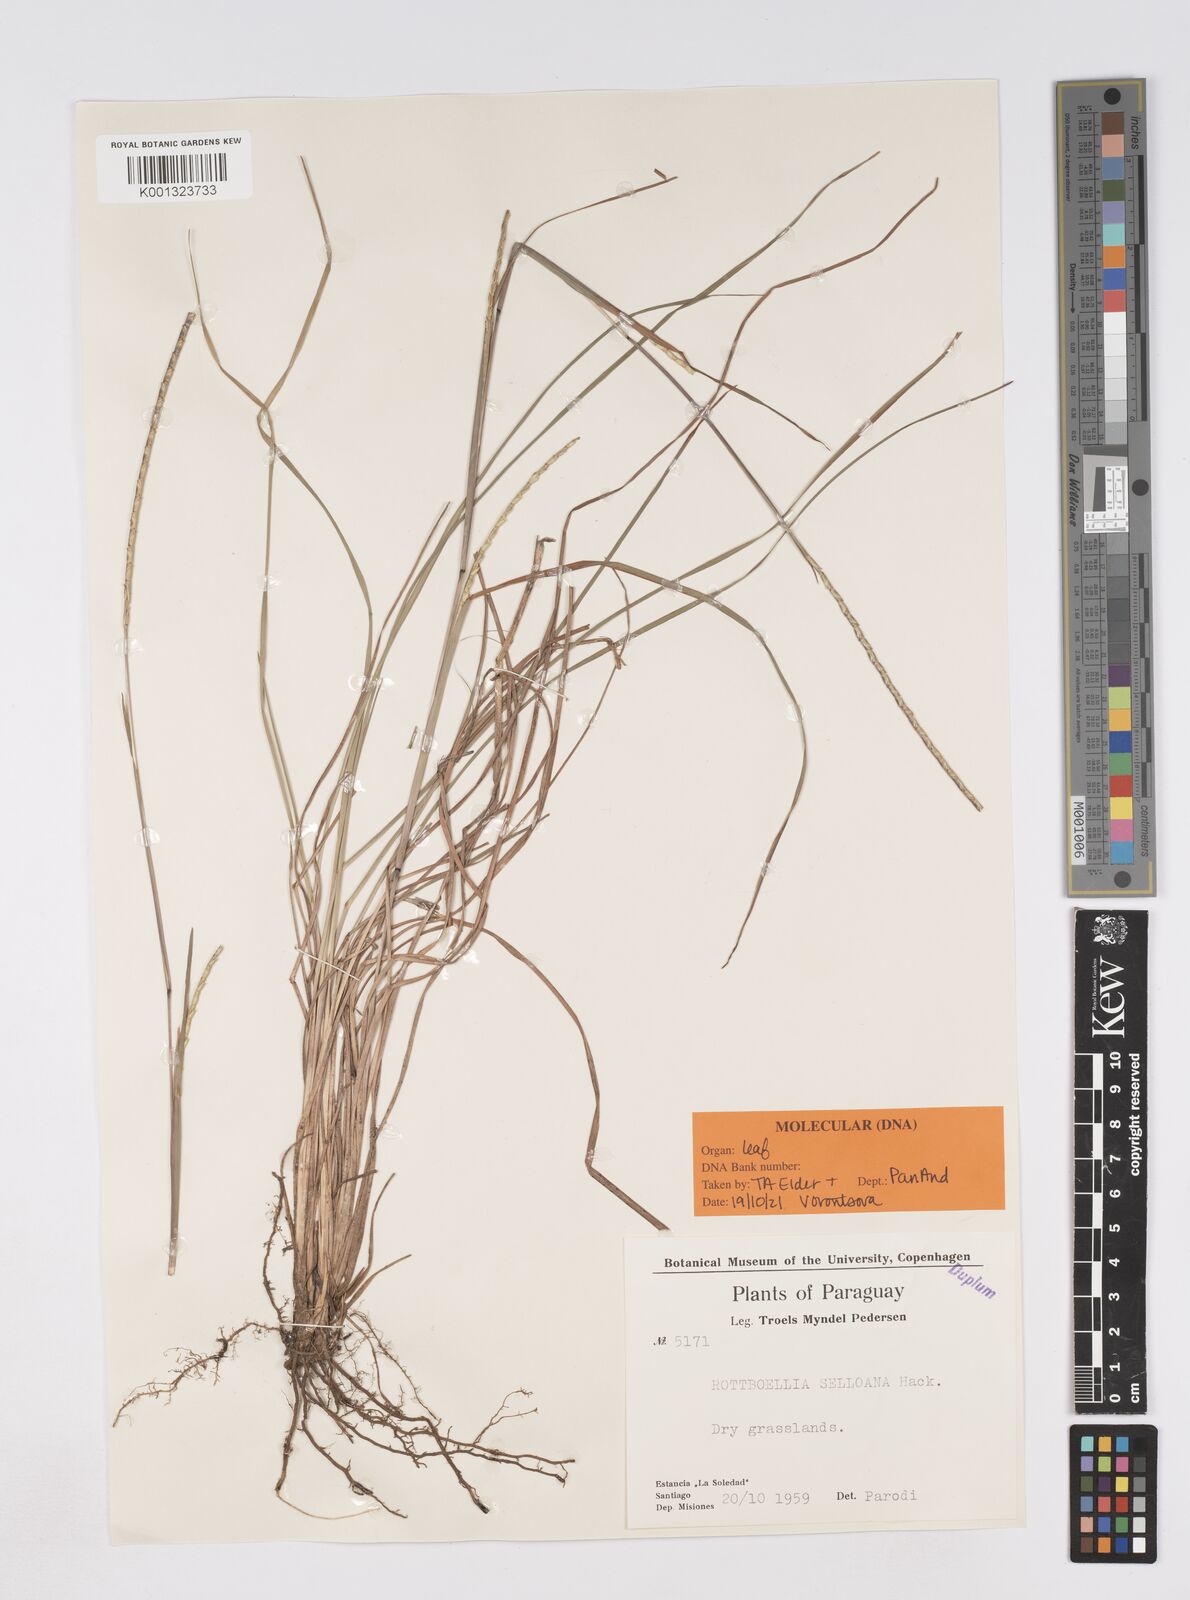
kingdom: Plantae
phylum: Tracheophyta
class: Liliopsida
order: Poales
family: Poaceae
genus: Rottboellia
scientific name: Rottboellia selloana
